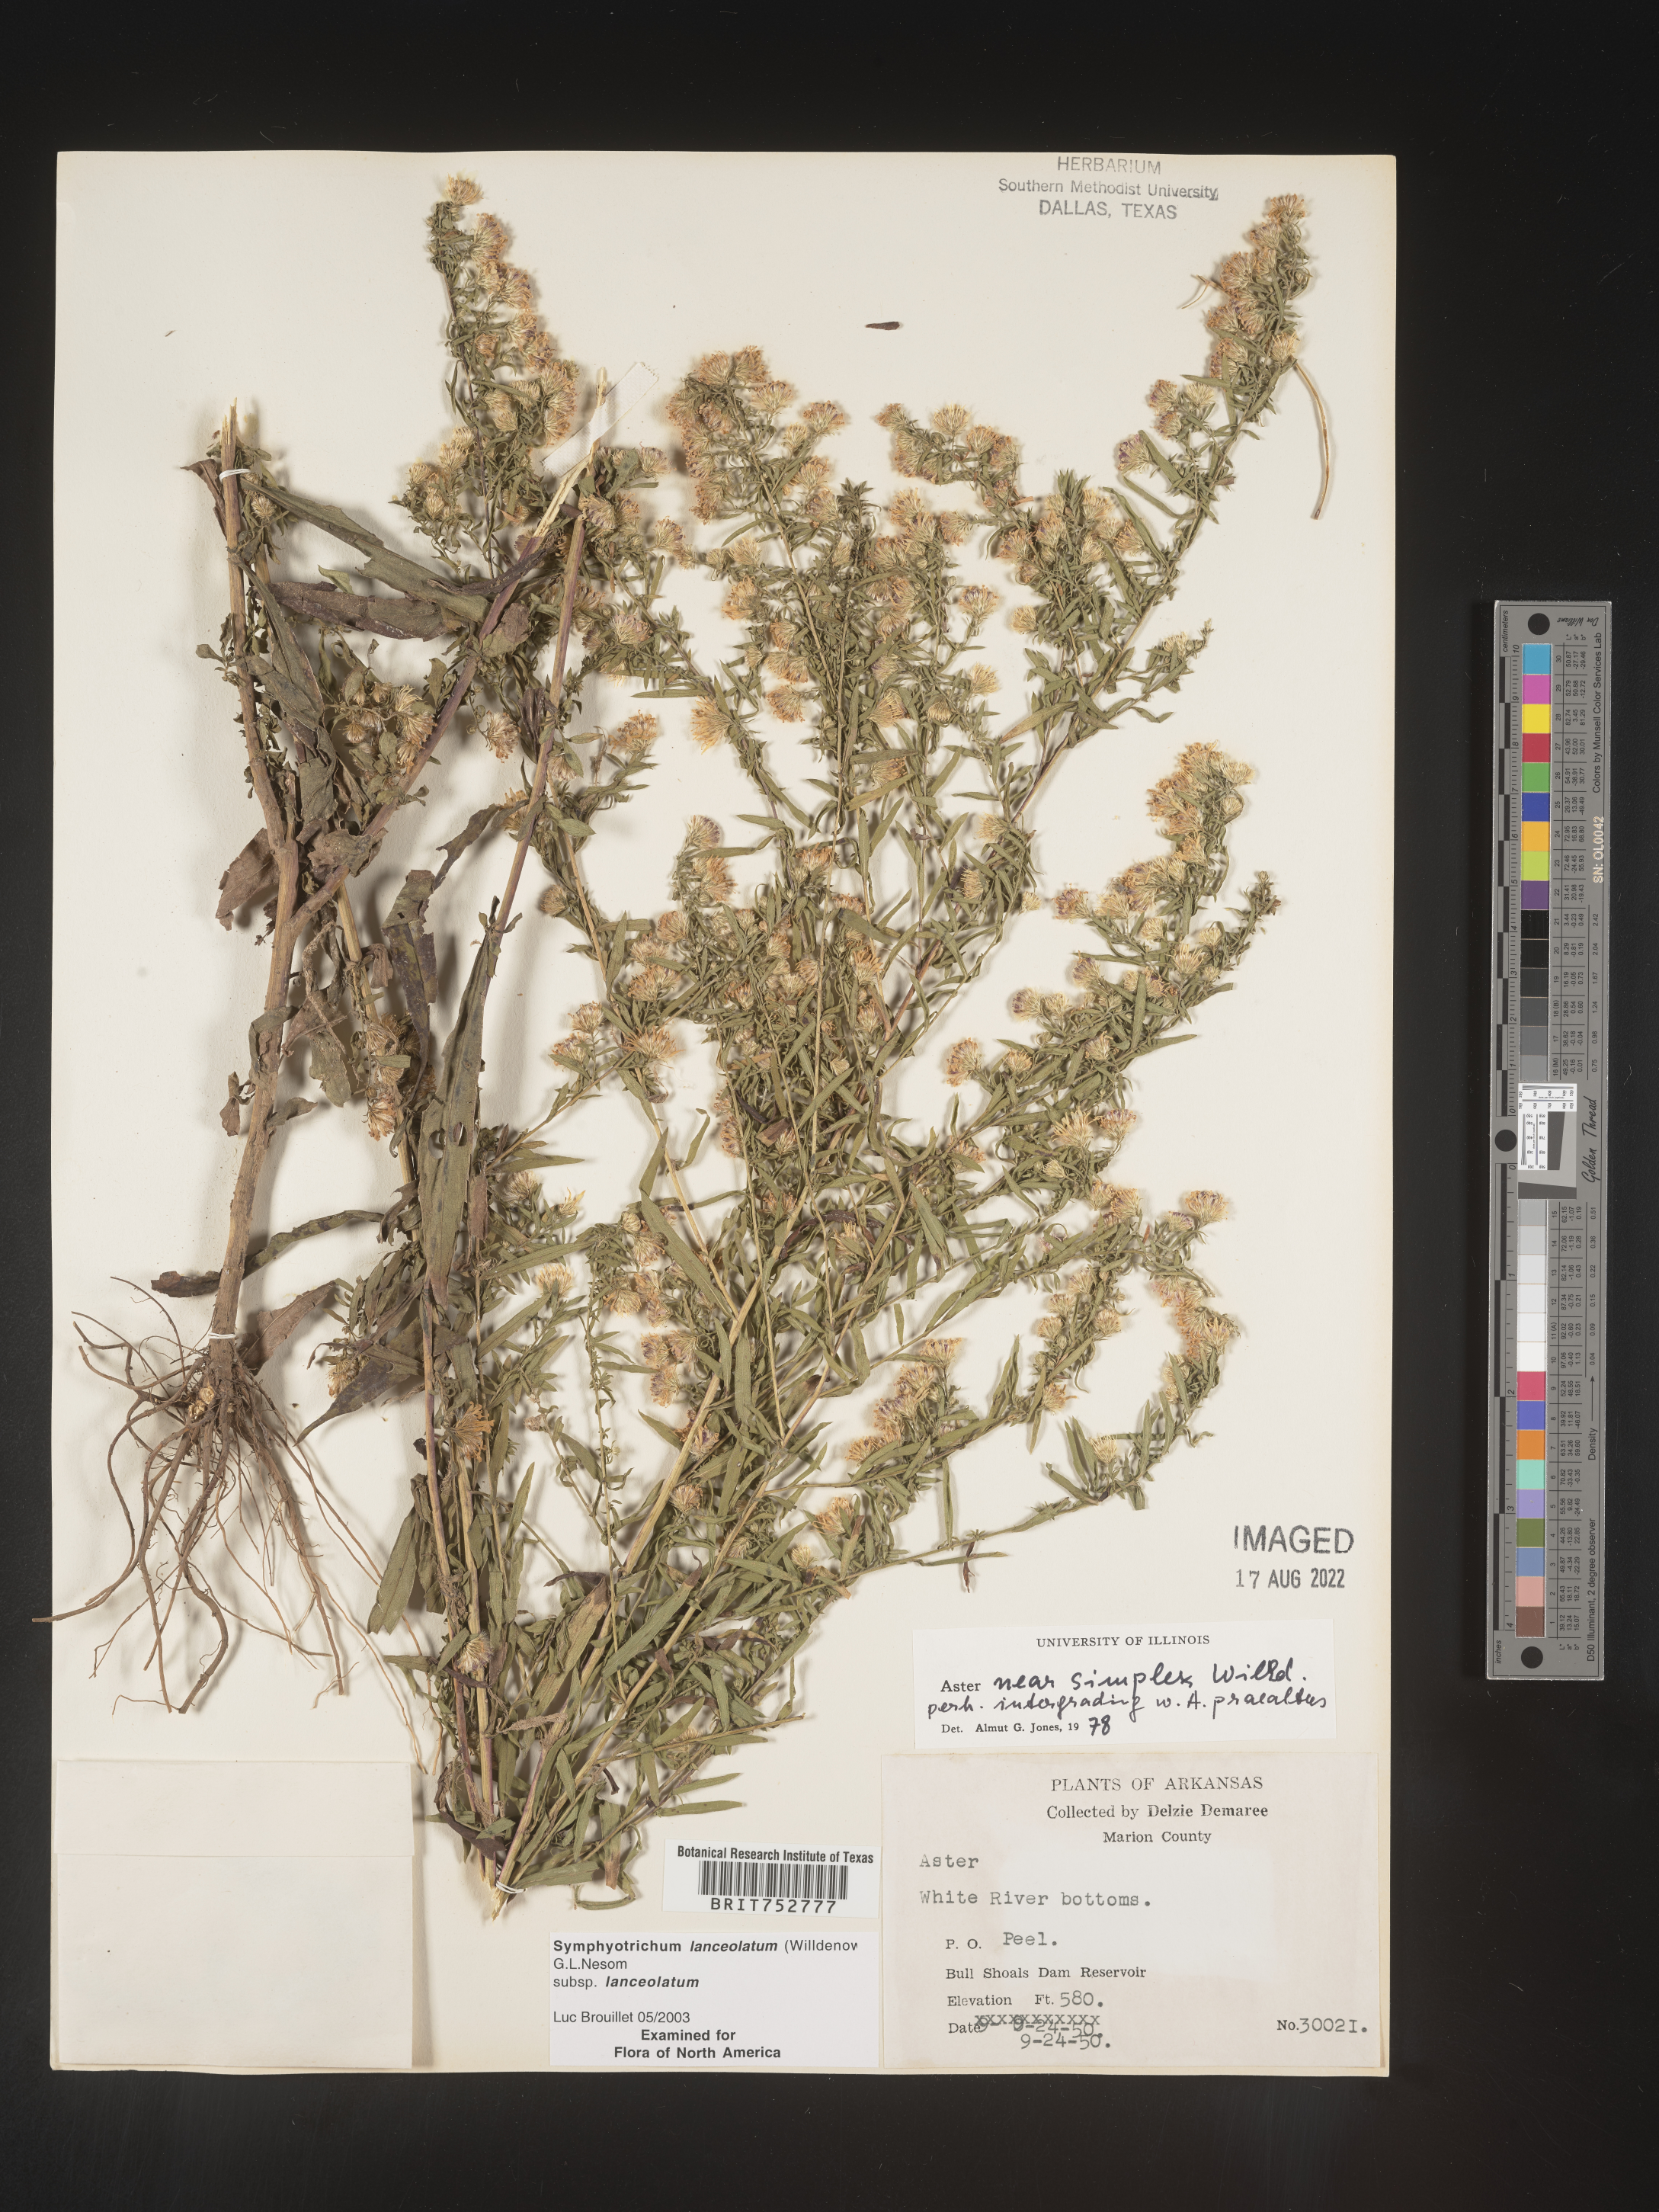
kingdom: Plantae
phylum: Tracheophyta
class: Magnoliopsida
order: Asterales
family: Asteraceae
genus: Symphyotrichum
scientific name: Symphyotrichum lanceolatum
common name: Panicled aster
